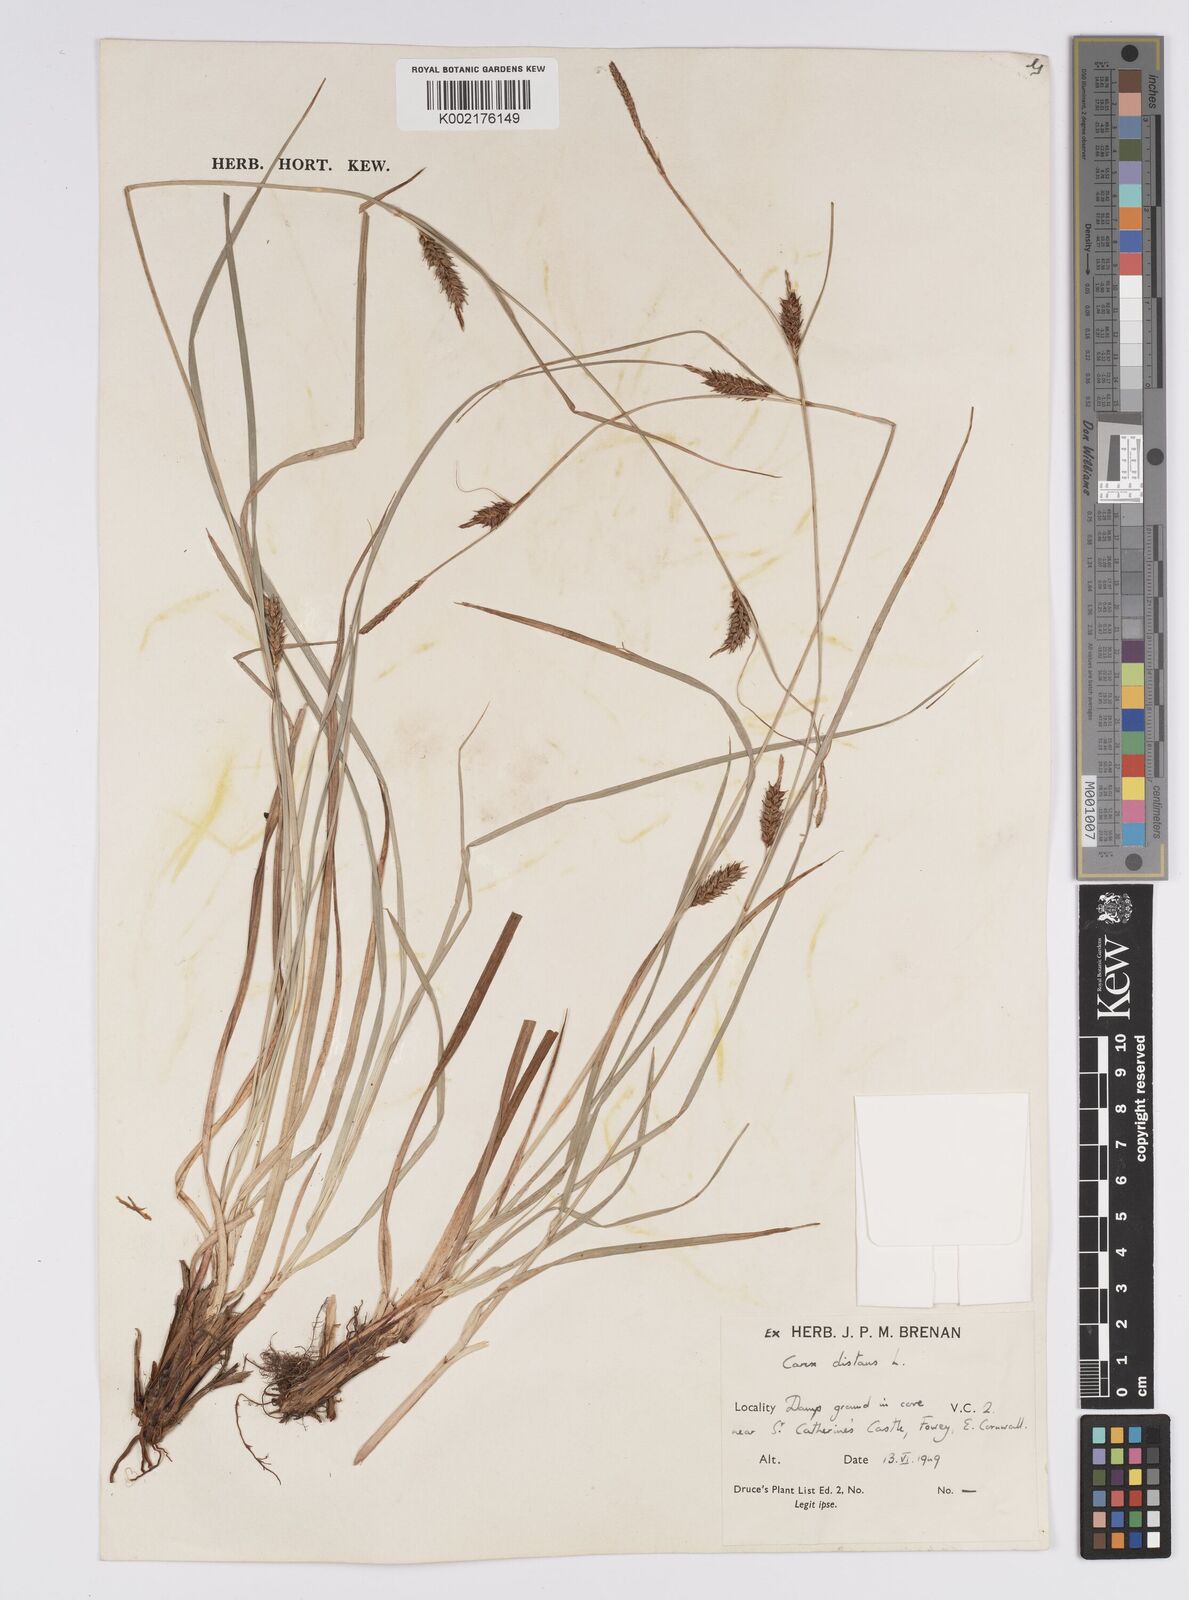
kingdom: Plantae
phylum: Tracheophyta
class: Liliopsida
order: Poales
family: Cyperaceae
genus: Carex
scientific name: Carex distans
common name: Distant sedge
